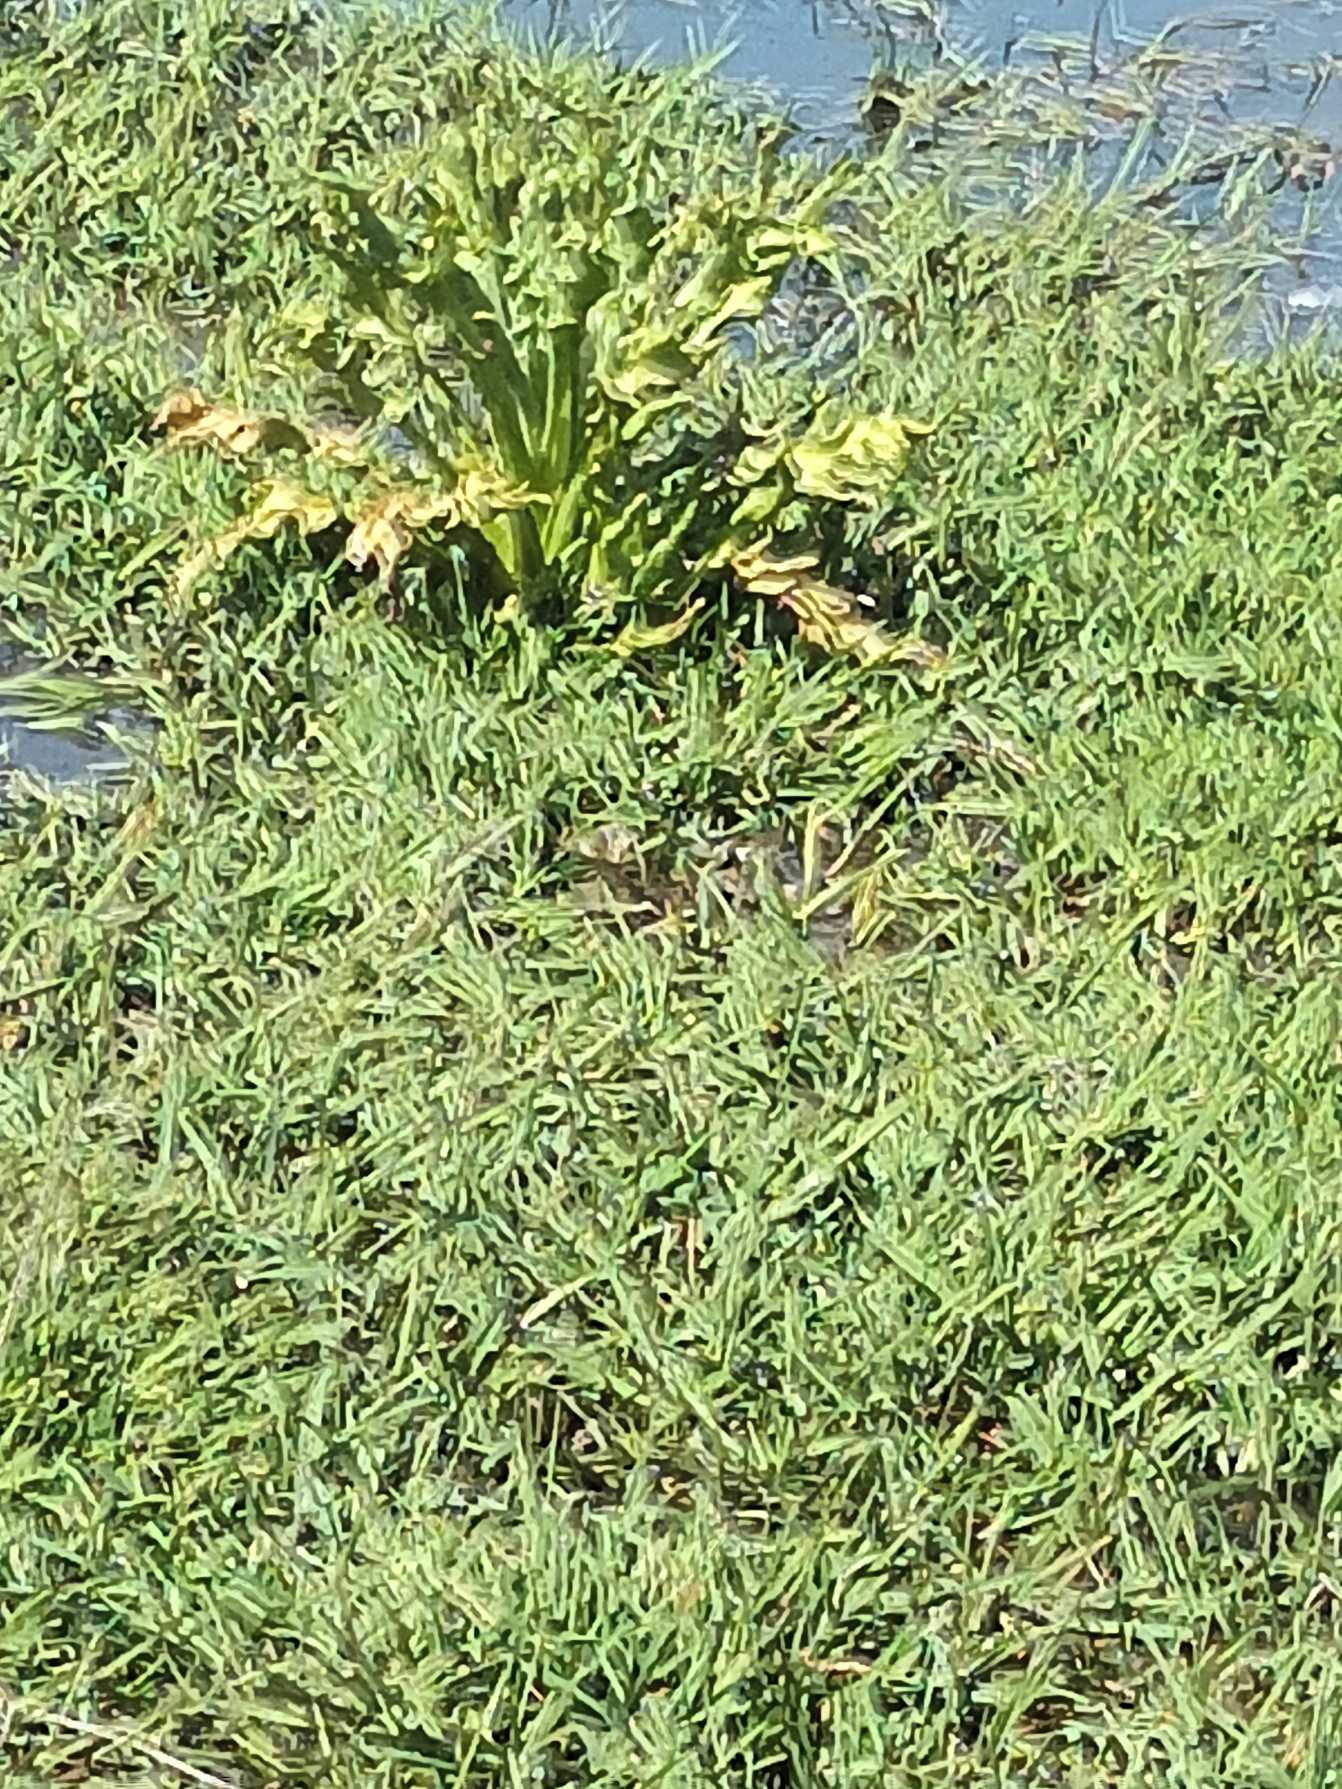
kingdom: Plantae
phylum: Tracheophyta
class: Magnoliopsida
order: Asterales
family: Asteraceae
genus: Tephroseris
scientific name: Tephroseris palustris
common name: Kær-fnokurt
